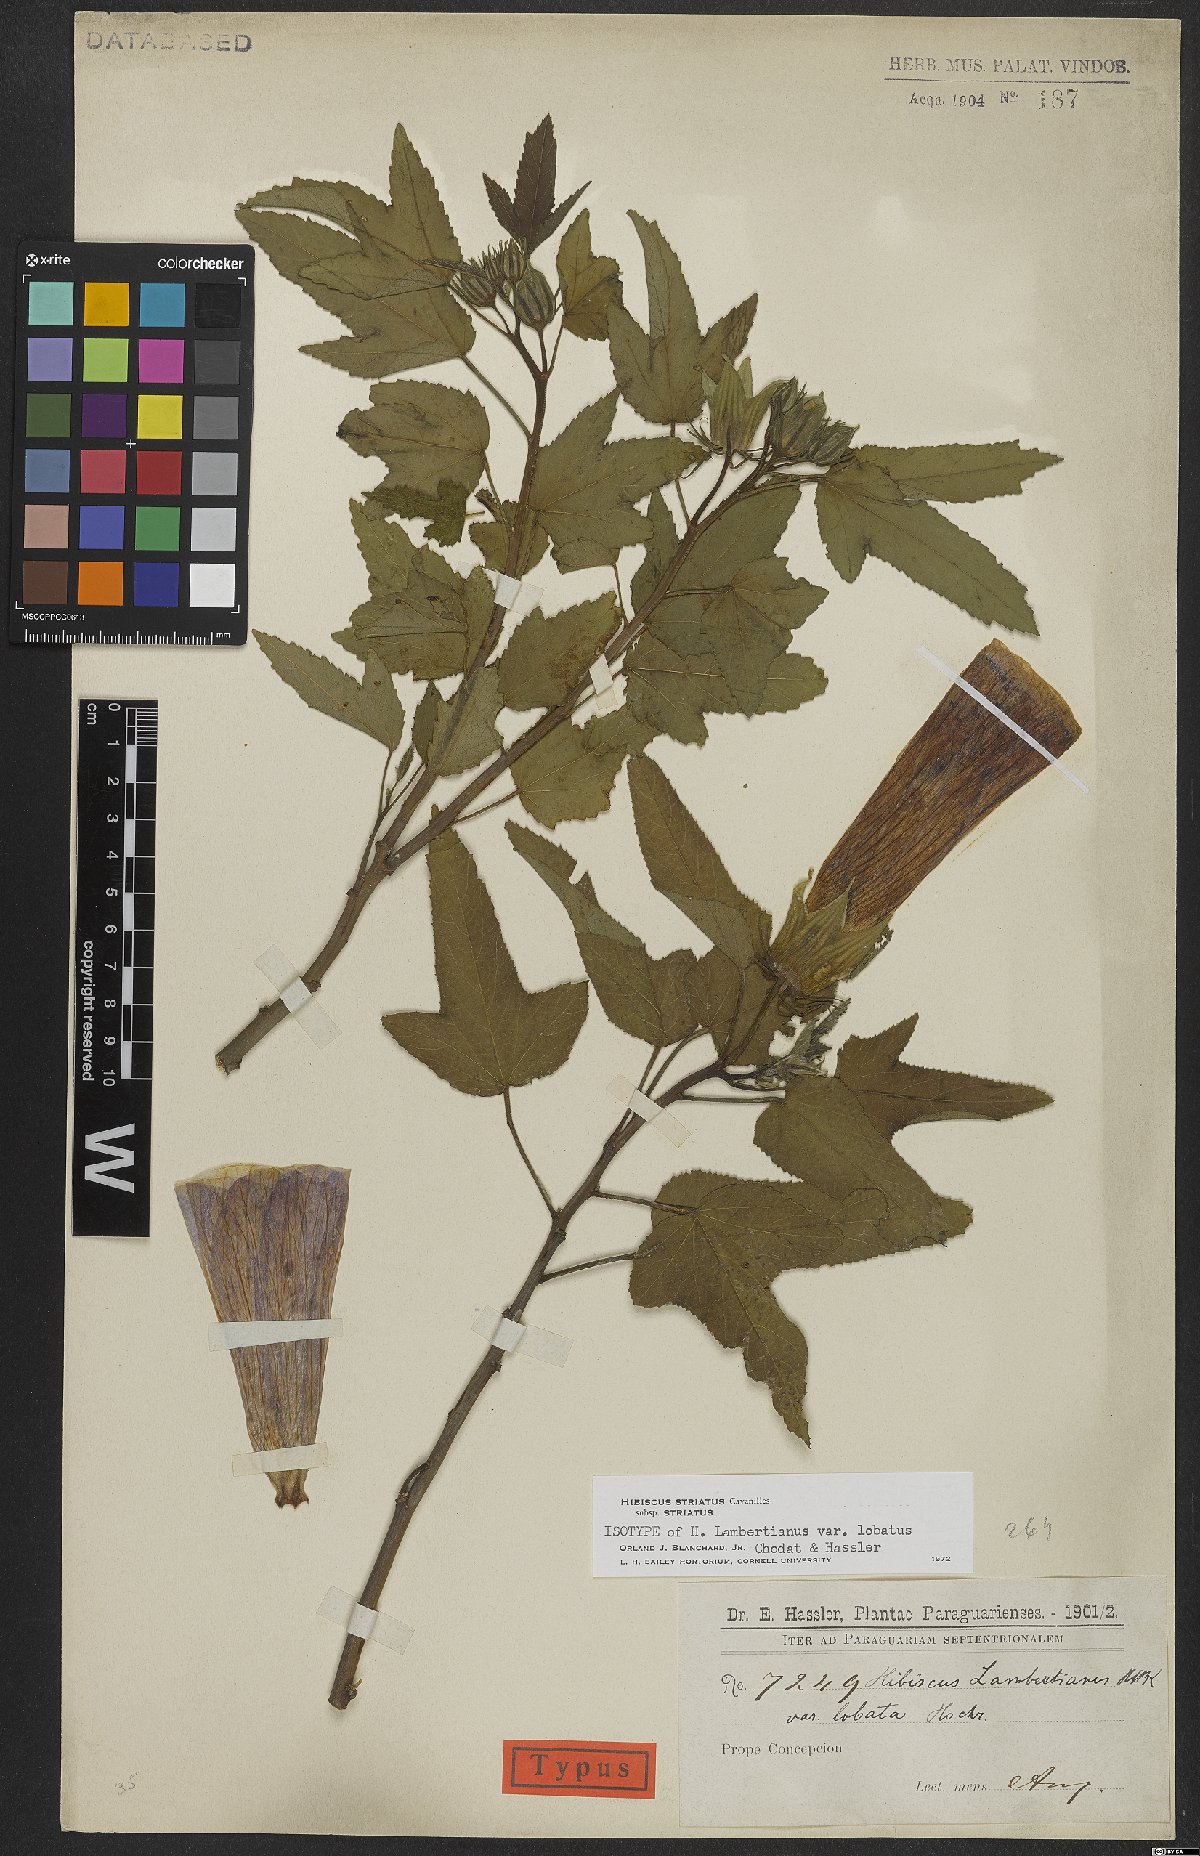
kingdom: Plantae
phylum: Tracheophyta
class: Magnoliopsida
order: Malvales
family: Malvaceae
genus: Hibiscus
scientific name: Hibiscus striatus
